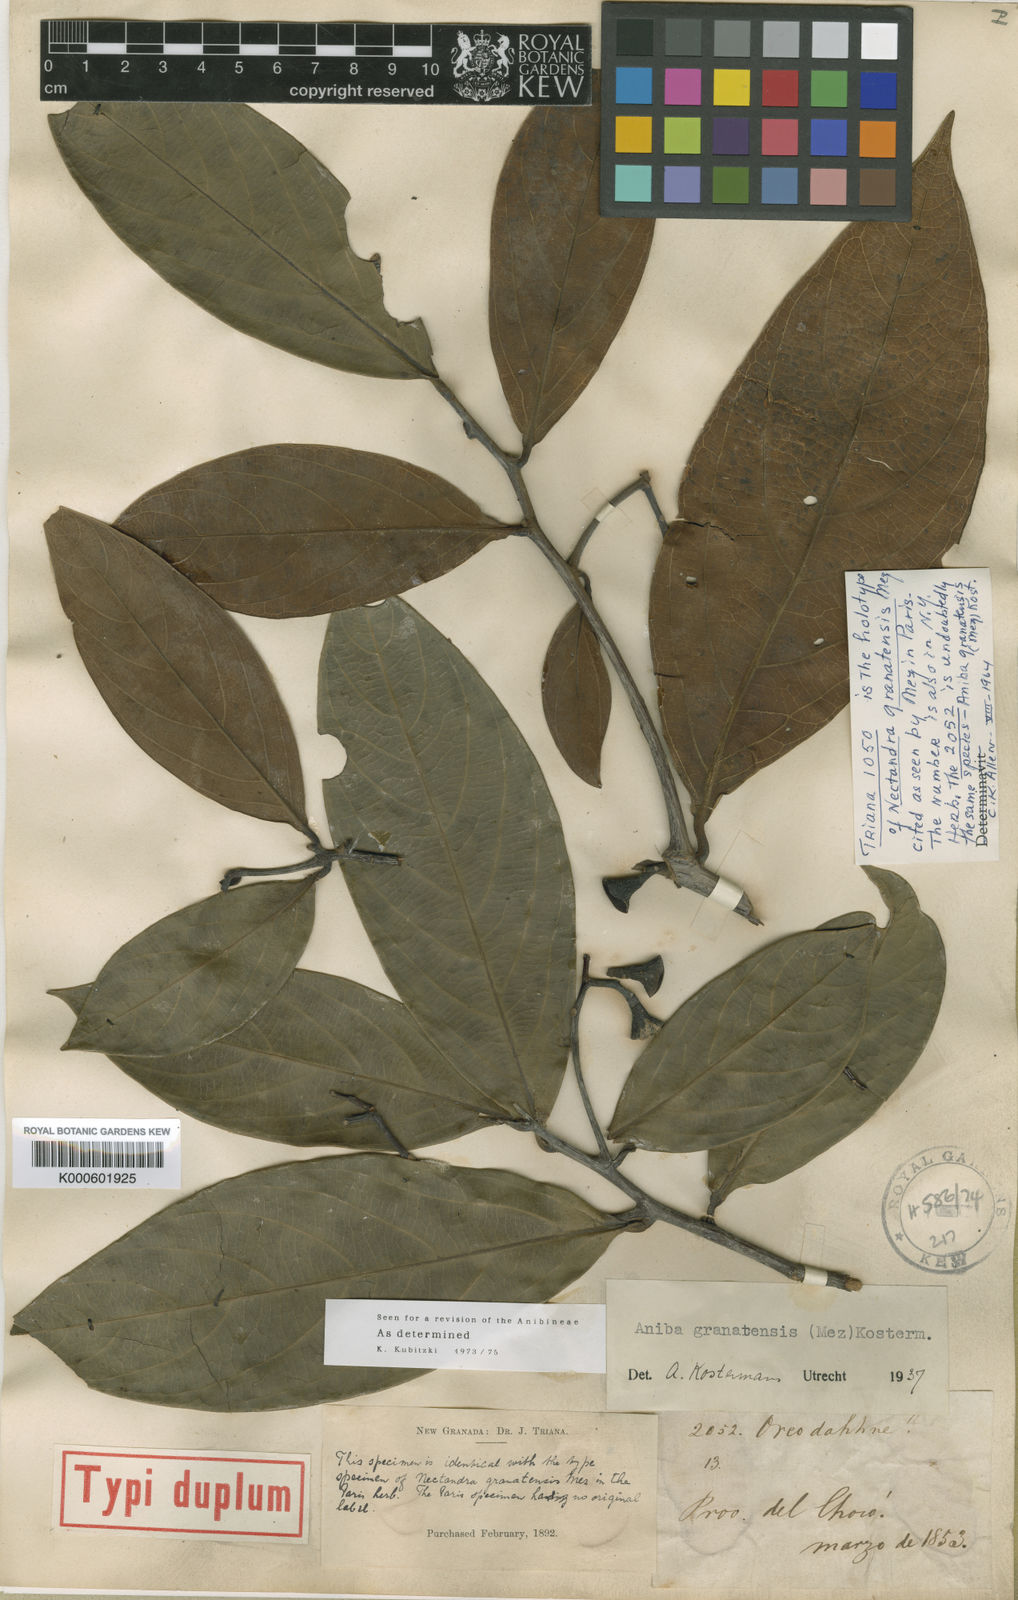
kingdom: Plantae
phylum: Tracheophyta
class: Magnoliopsida
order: Laurales
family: Lauraceae
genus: Aiouea
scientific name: Aiouea lehmannii
